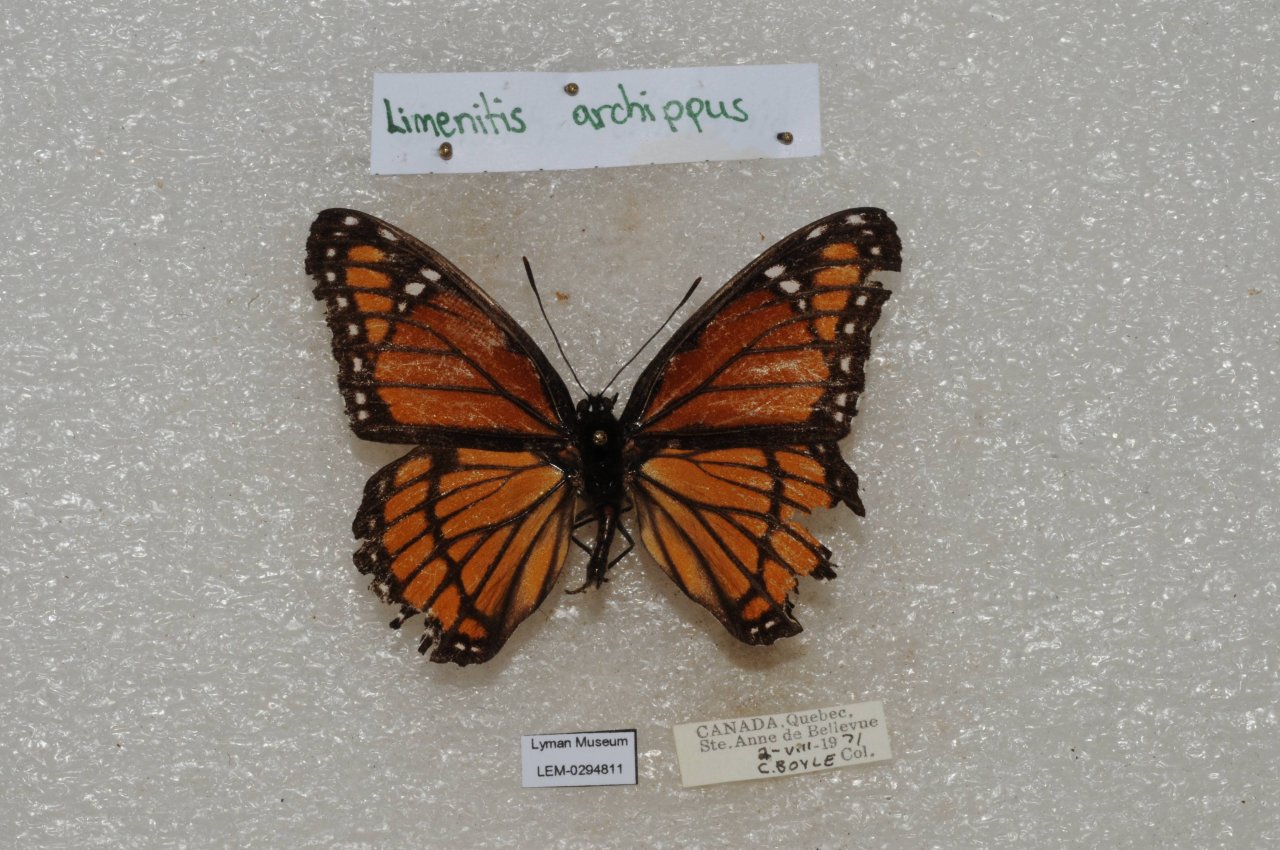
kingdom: Animalia
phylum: Arthropoda
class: Insecta
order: Lepidoptera
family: Nymphalidae
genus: Limenitis
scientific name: Limenitis archippus
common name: Viceroy
